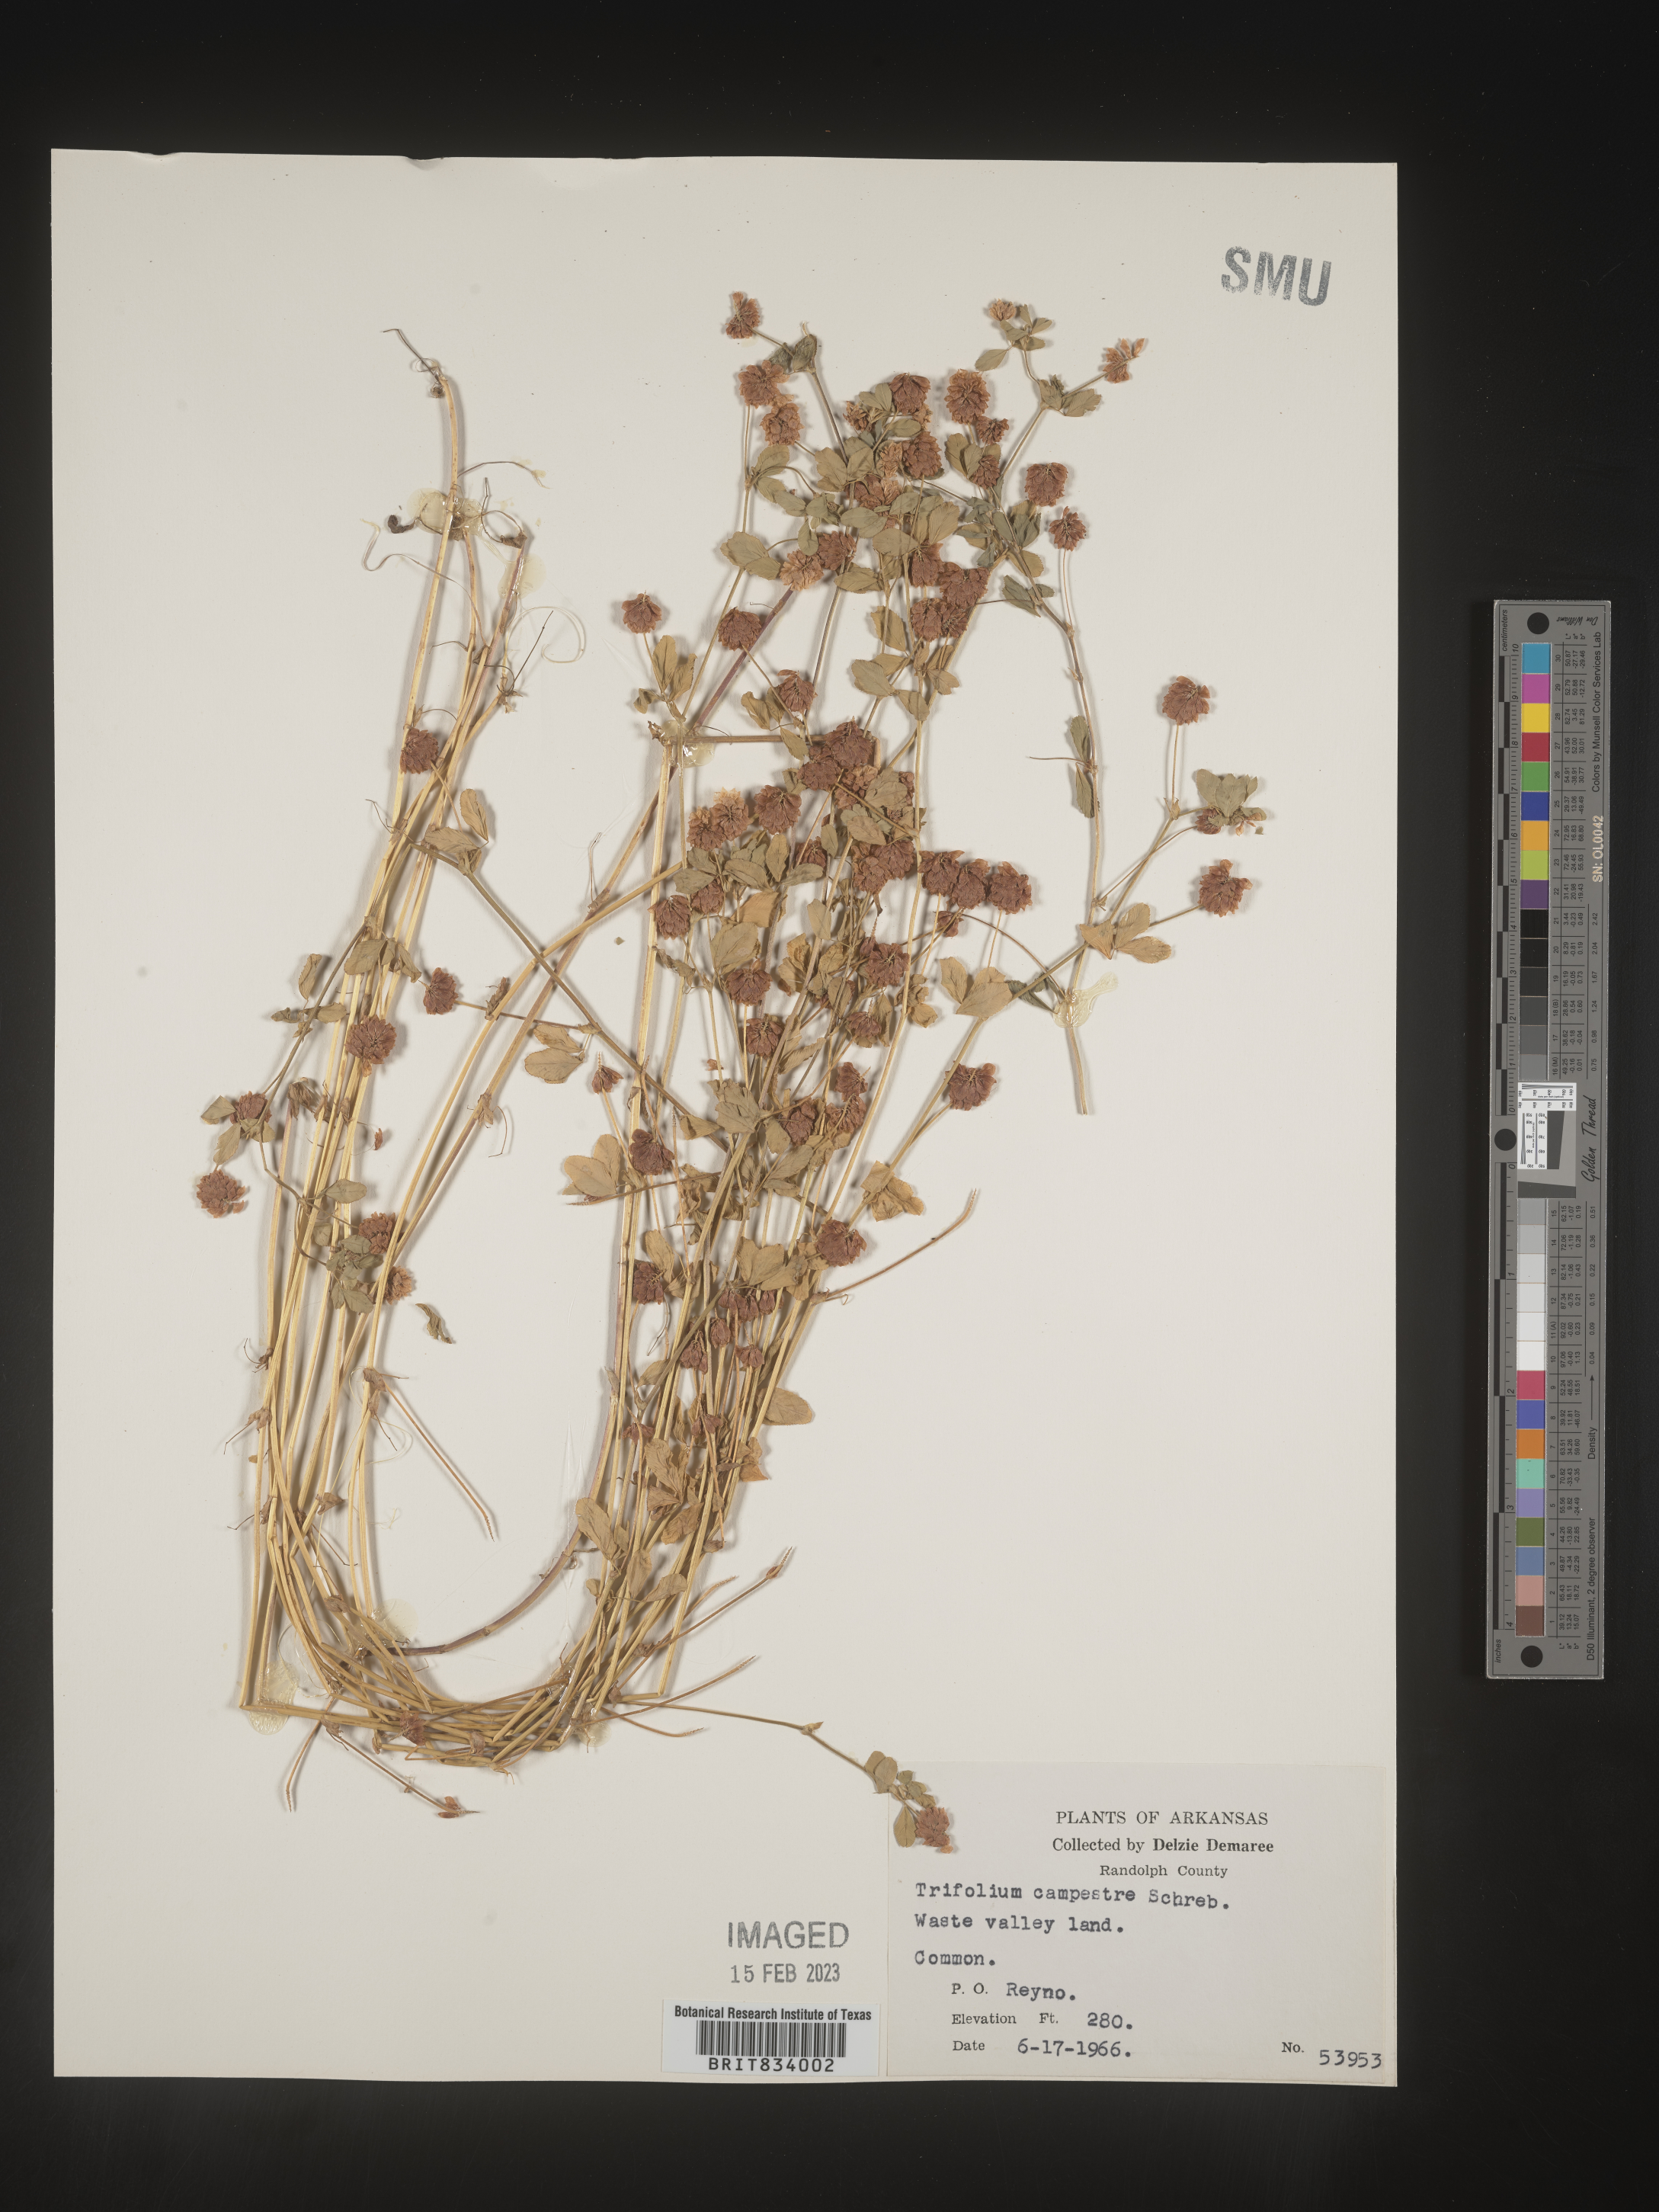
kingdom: Plantae
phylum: Tracheophyta
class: Magnoliopsida
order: Fabales
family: Fabaceae
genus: Trifolium
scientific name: Trifolium campestre
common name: Field clover
